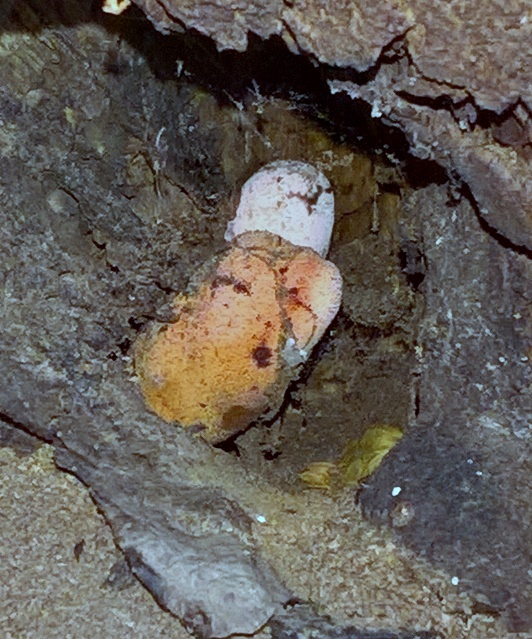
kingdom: Fungi
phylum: Basidiomycota
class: Agaricomycetes
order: Agaricales
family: Fistulinaceae
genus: Fistulina
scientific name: Fistulina hepatica
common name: oksetunge
